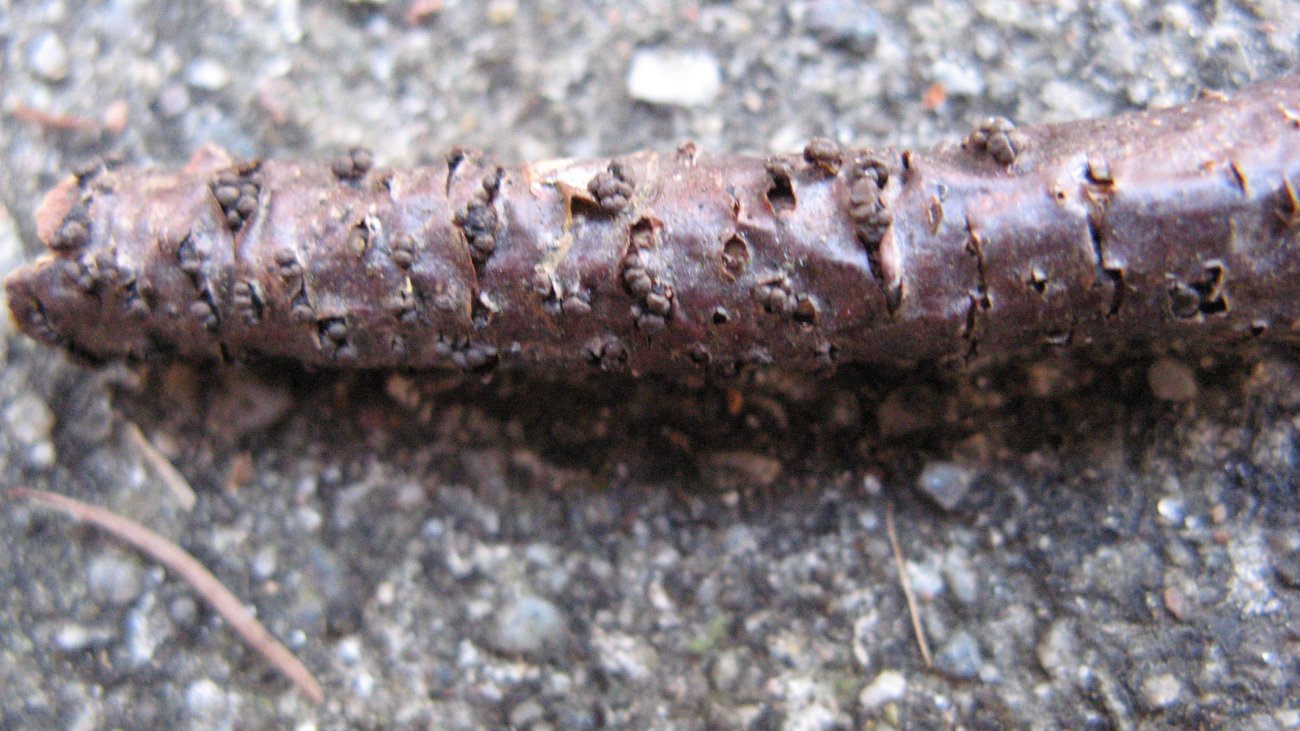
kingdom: Fungi
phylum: Ascomycota
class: Leotiomycetes
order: Helotiales
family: Godroniaceae
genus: Godronia
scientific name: Godronia ribis
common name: ribs-urneskive
